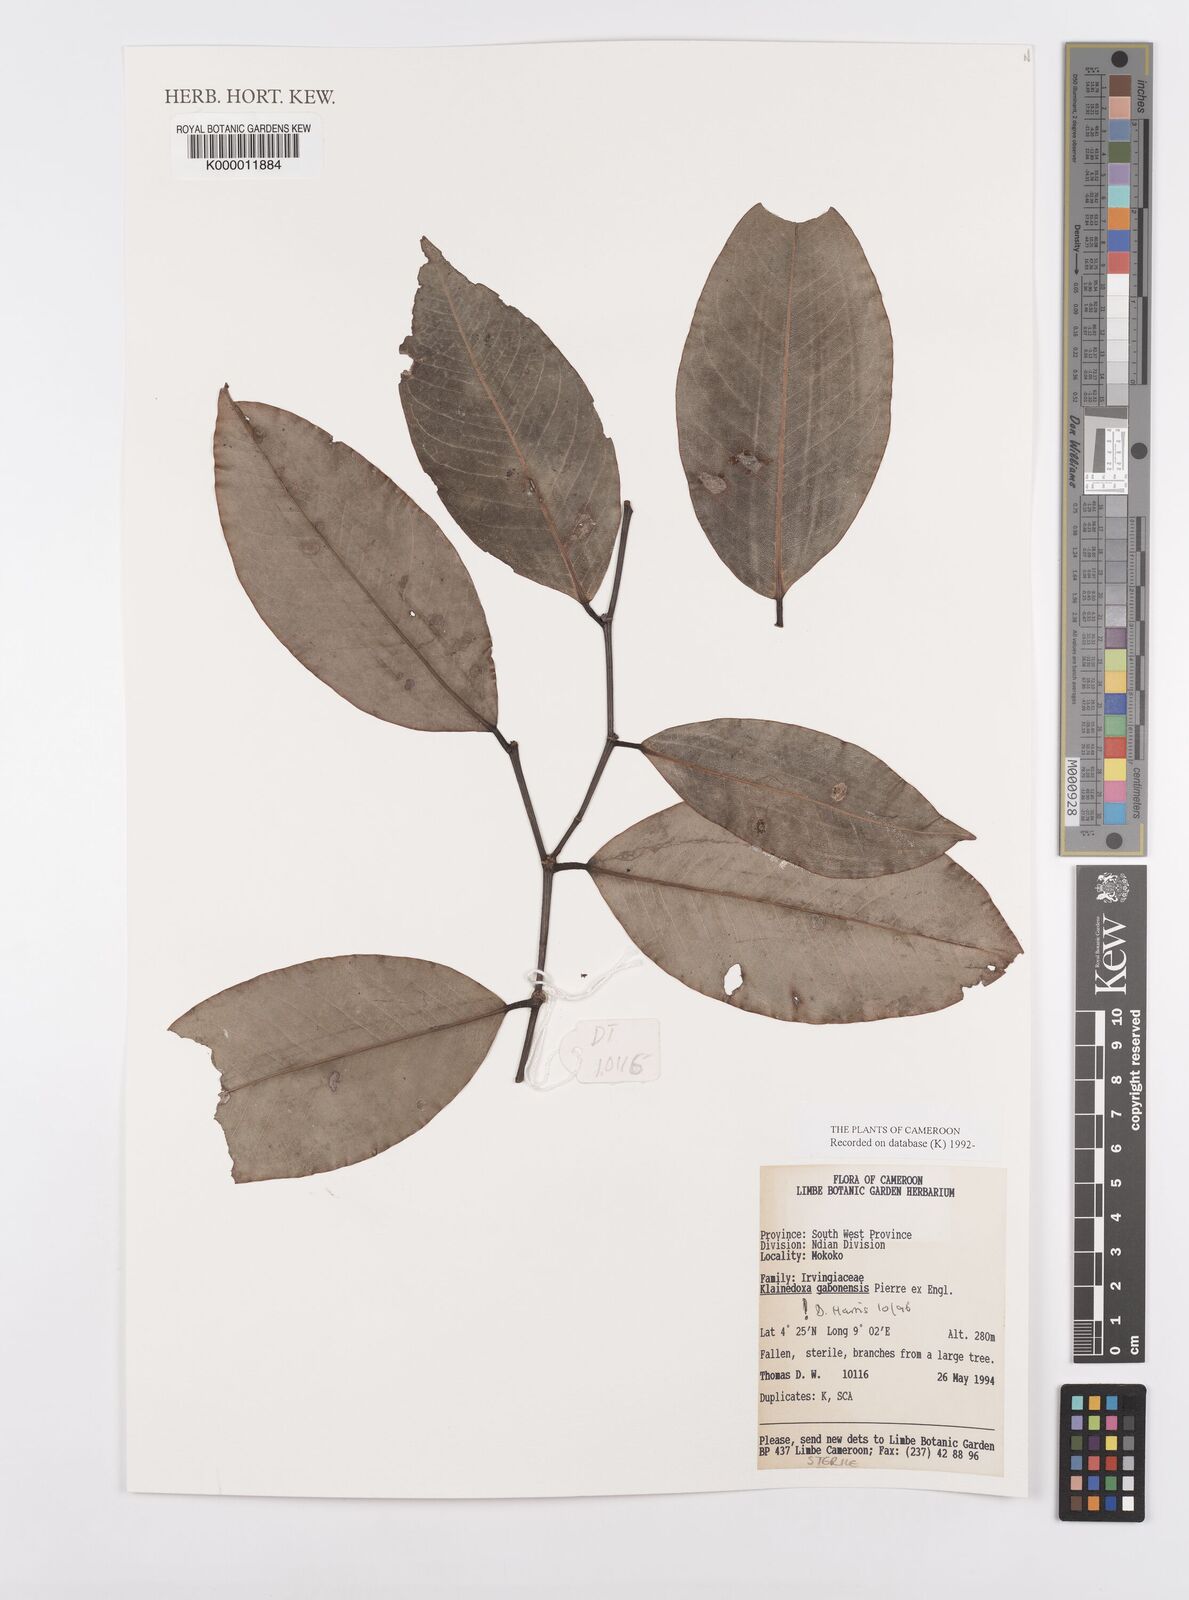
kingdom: Plantae
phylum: Tracheophyta
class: Magnoliopsida
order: Malpighiales
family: Irvingiaceae
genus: Klainedoxa
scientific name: Klainedoxa gabonensis
